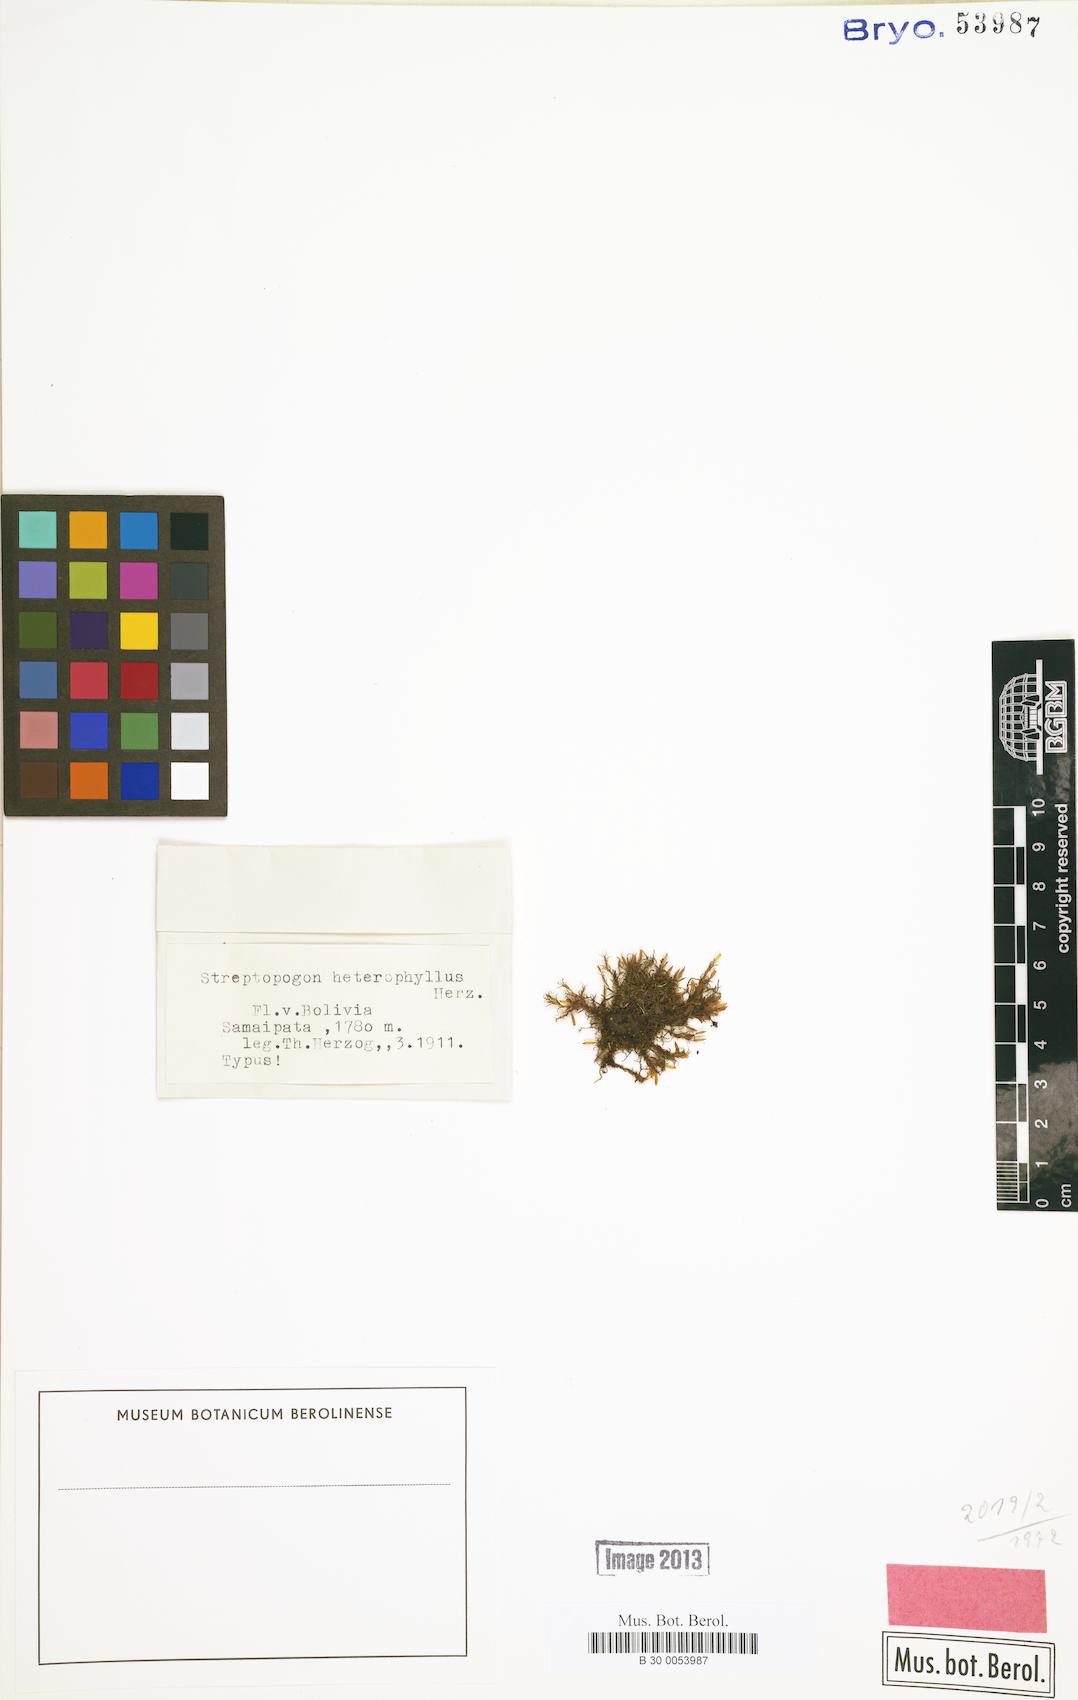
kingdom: Plantae
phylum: Bryophyta
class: Bryopsida
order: Pottiales
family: Pottiaceae
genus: Streptopogon
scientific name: Streptopogon erythrodontus
